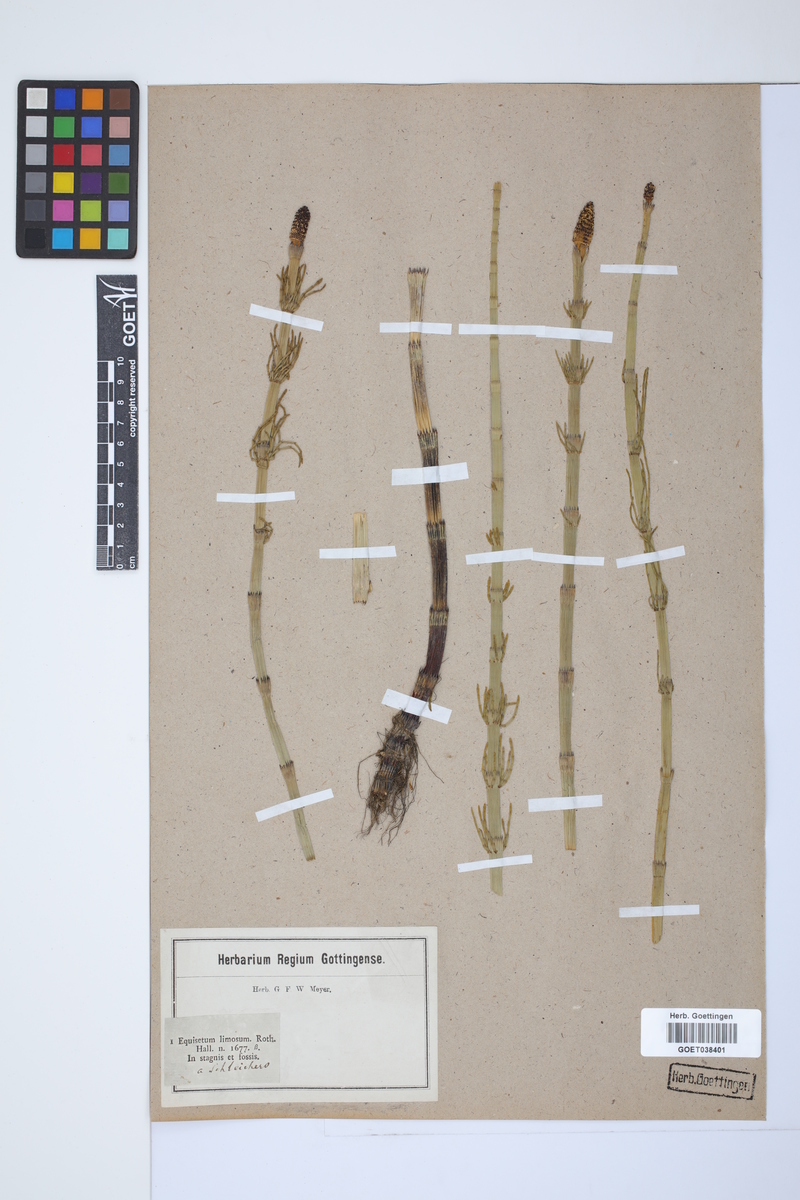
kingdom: Plantae
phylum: Tracheophyta
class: Polypodiopsida
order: Equisetales
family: Equisetaceae
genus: Equisetum
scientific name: Equisetum fluviatile
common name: Water horsetail
